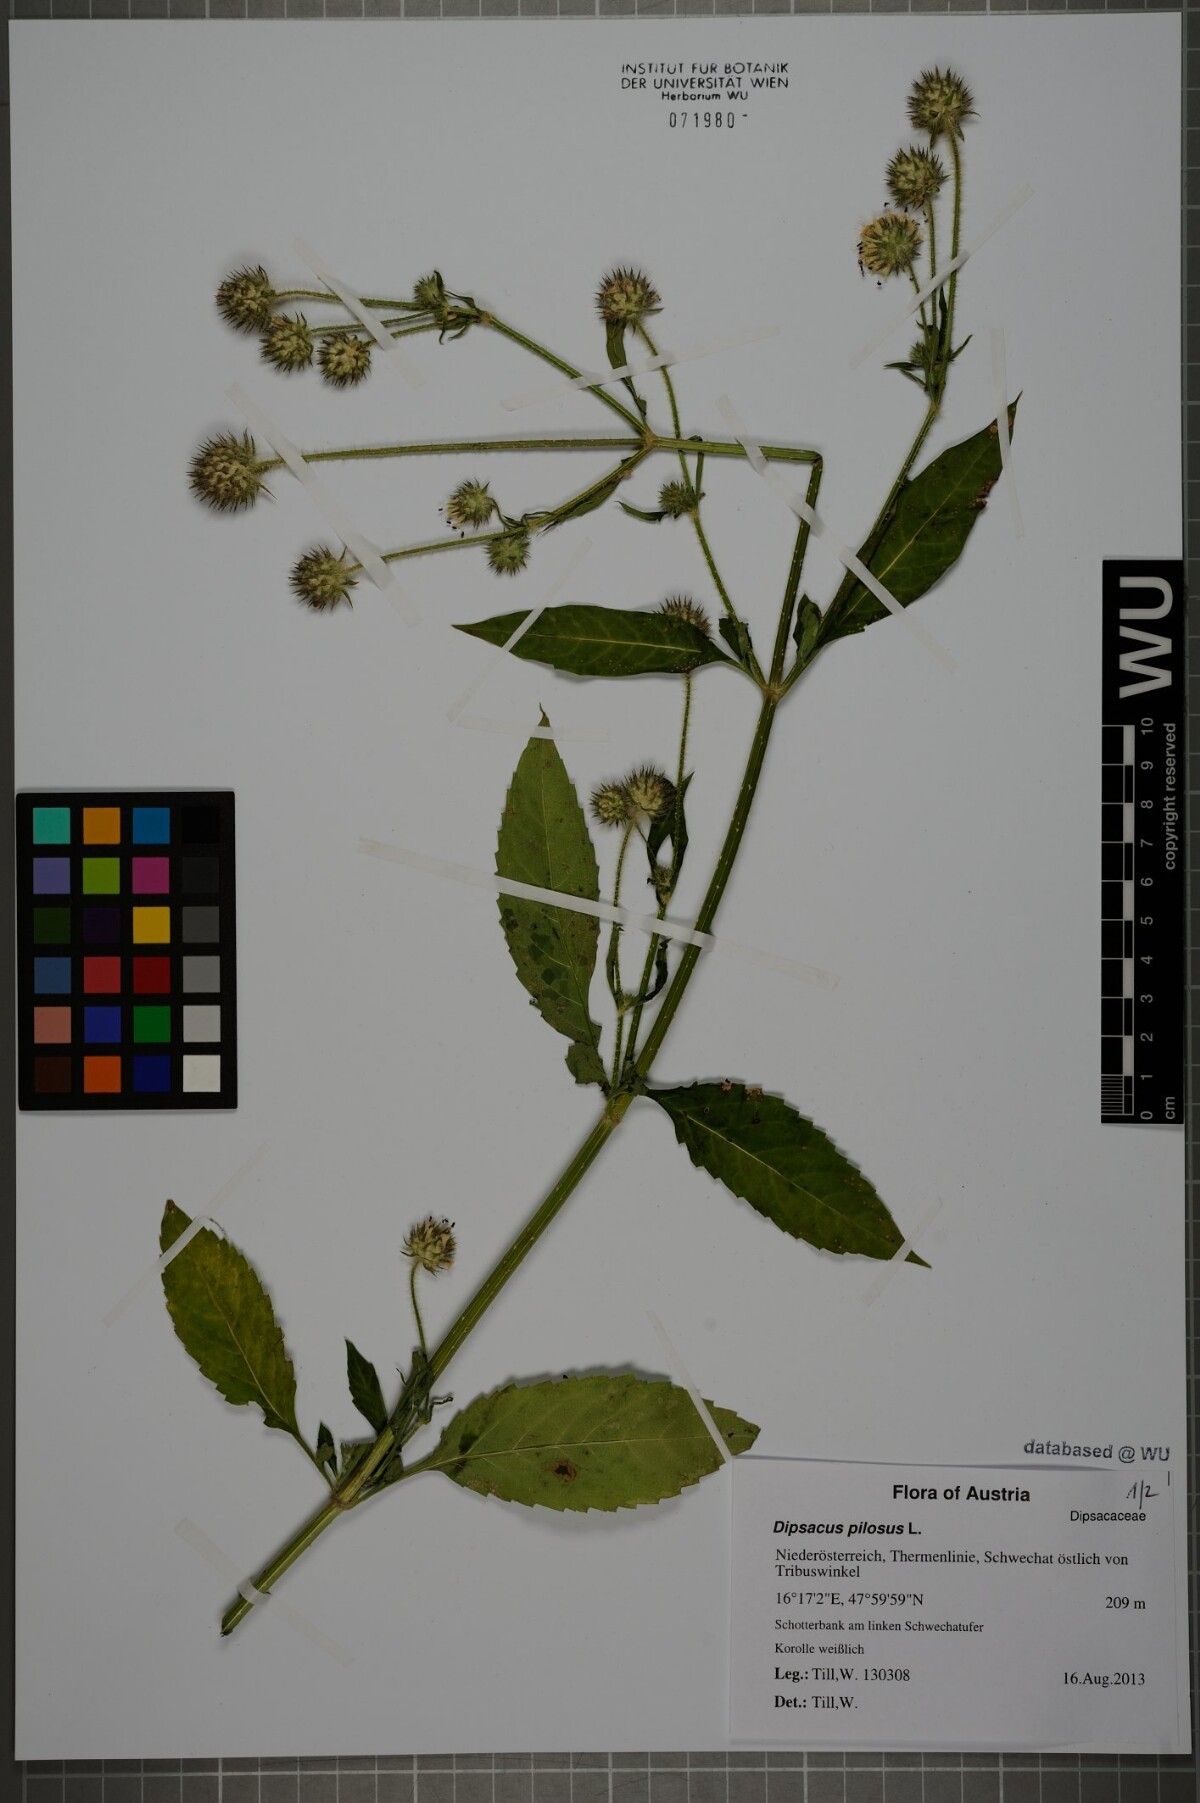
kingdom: Plantae
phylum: Tracheophyta
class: Magnoliopsida
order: Dipsacales
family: Caprifoliaceae
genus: Dipsacus
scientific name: Dipsacus pilosus
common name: Small teasel
